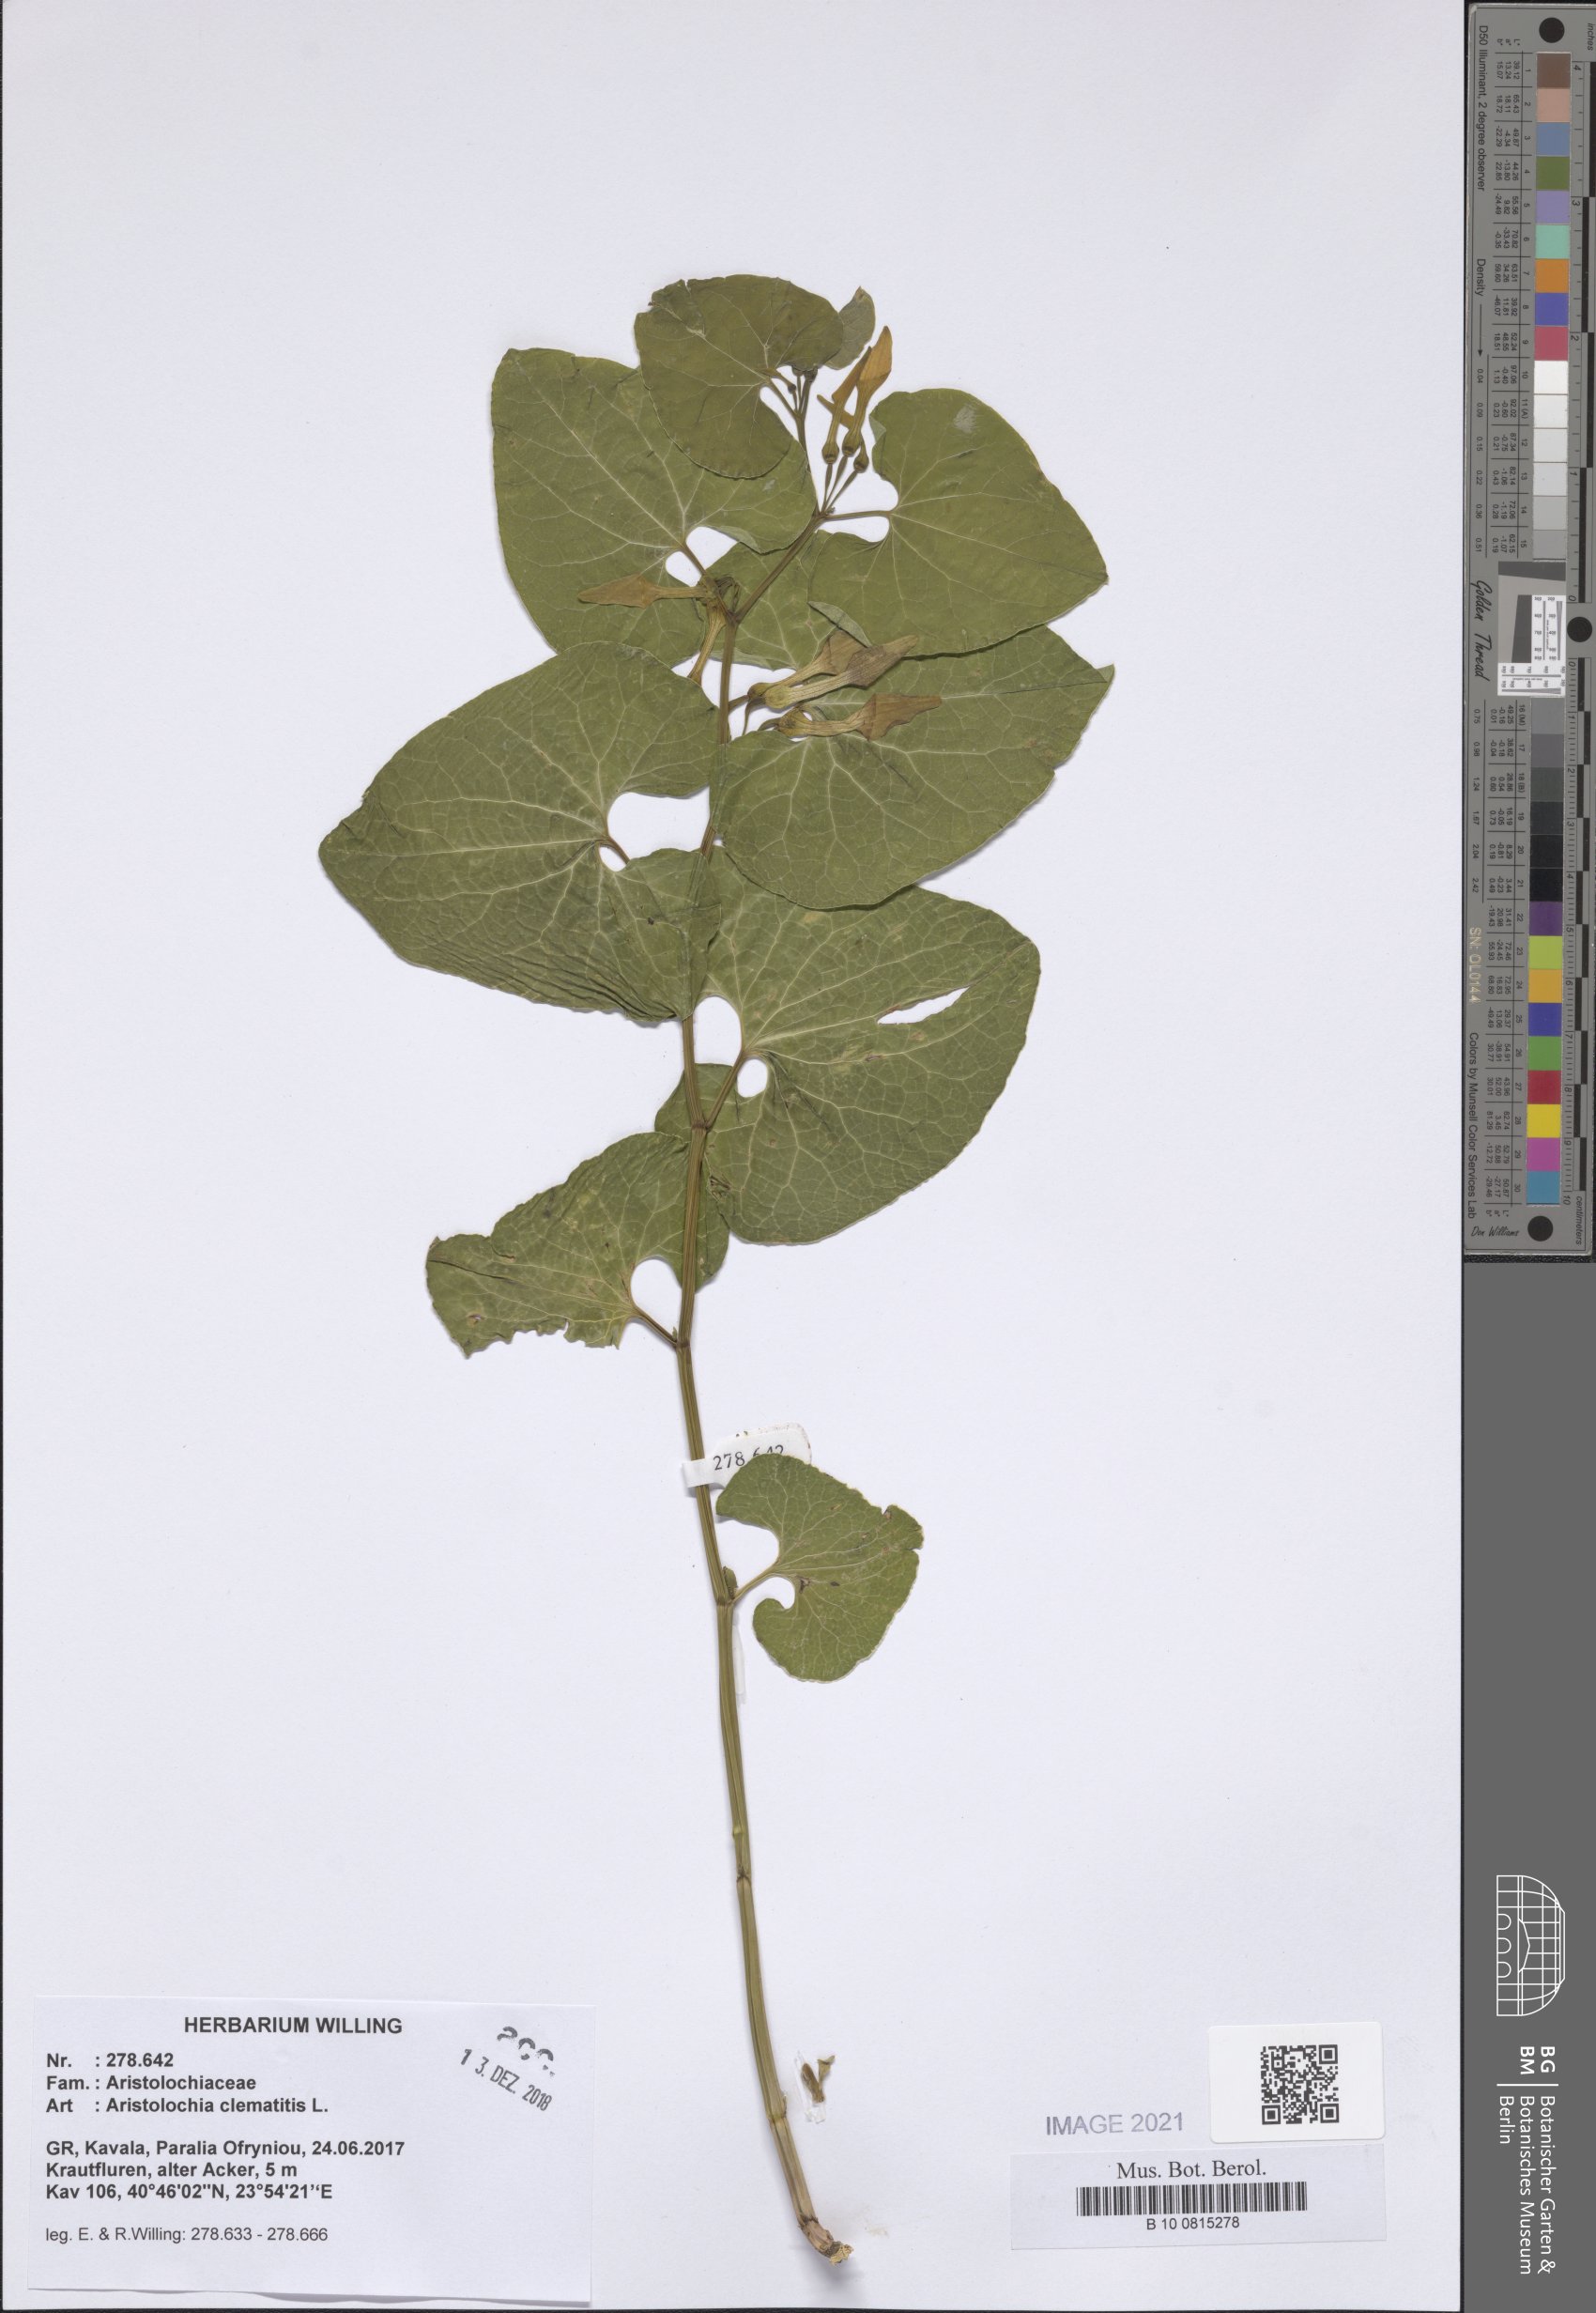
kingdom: Plantae
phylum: Tracheophyta
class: Magnoliopsida
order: Piperales
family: Aristolochiaceae
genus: Aristolochia
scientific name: Aristolochia clematitis
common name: Birthwort
